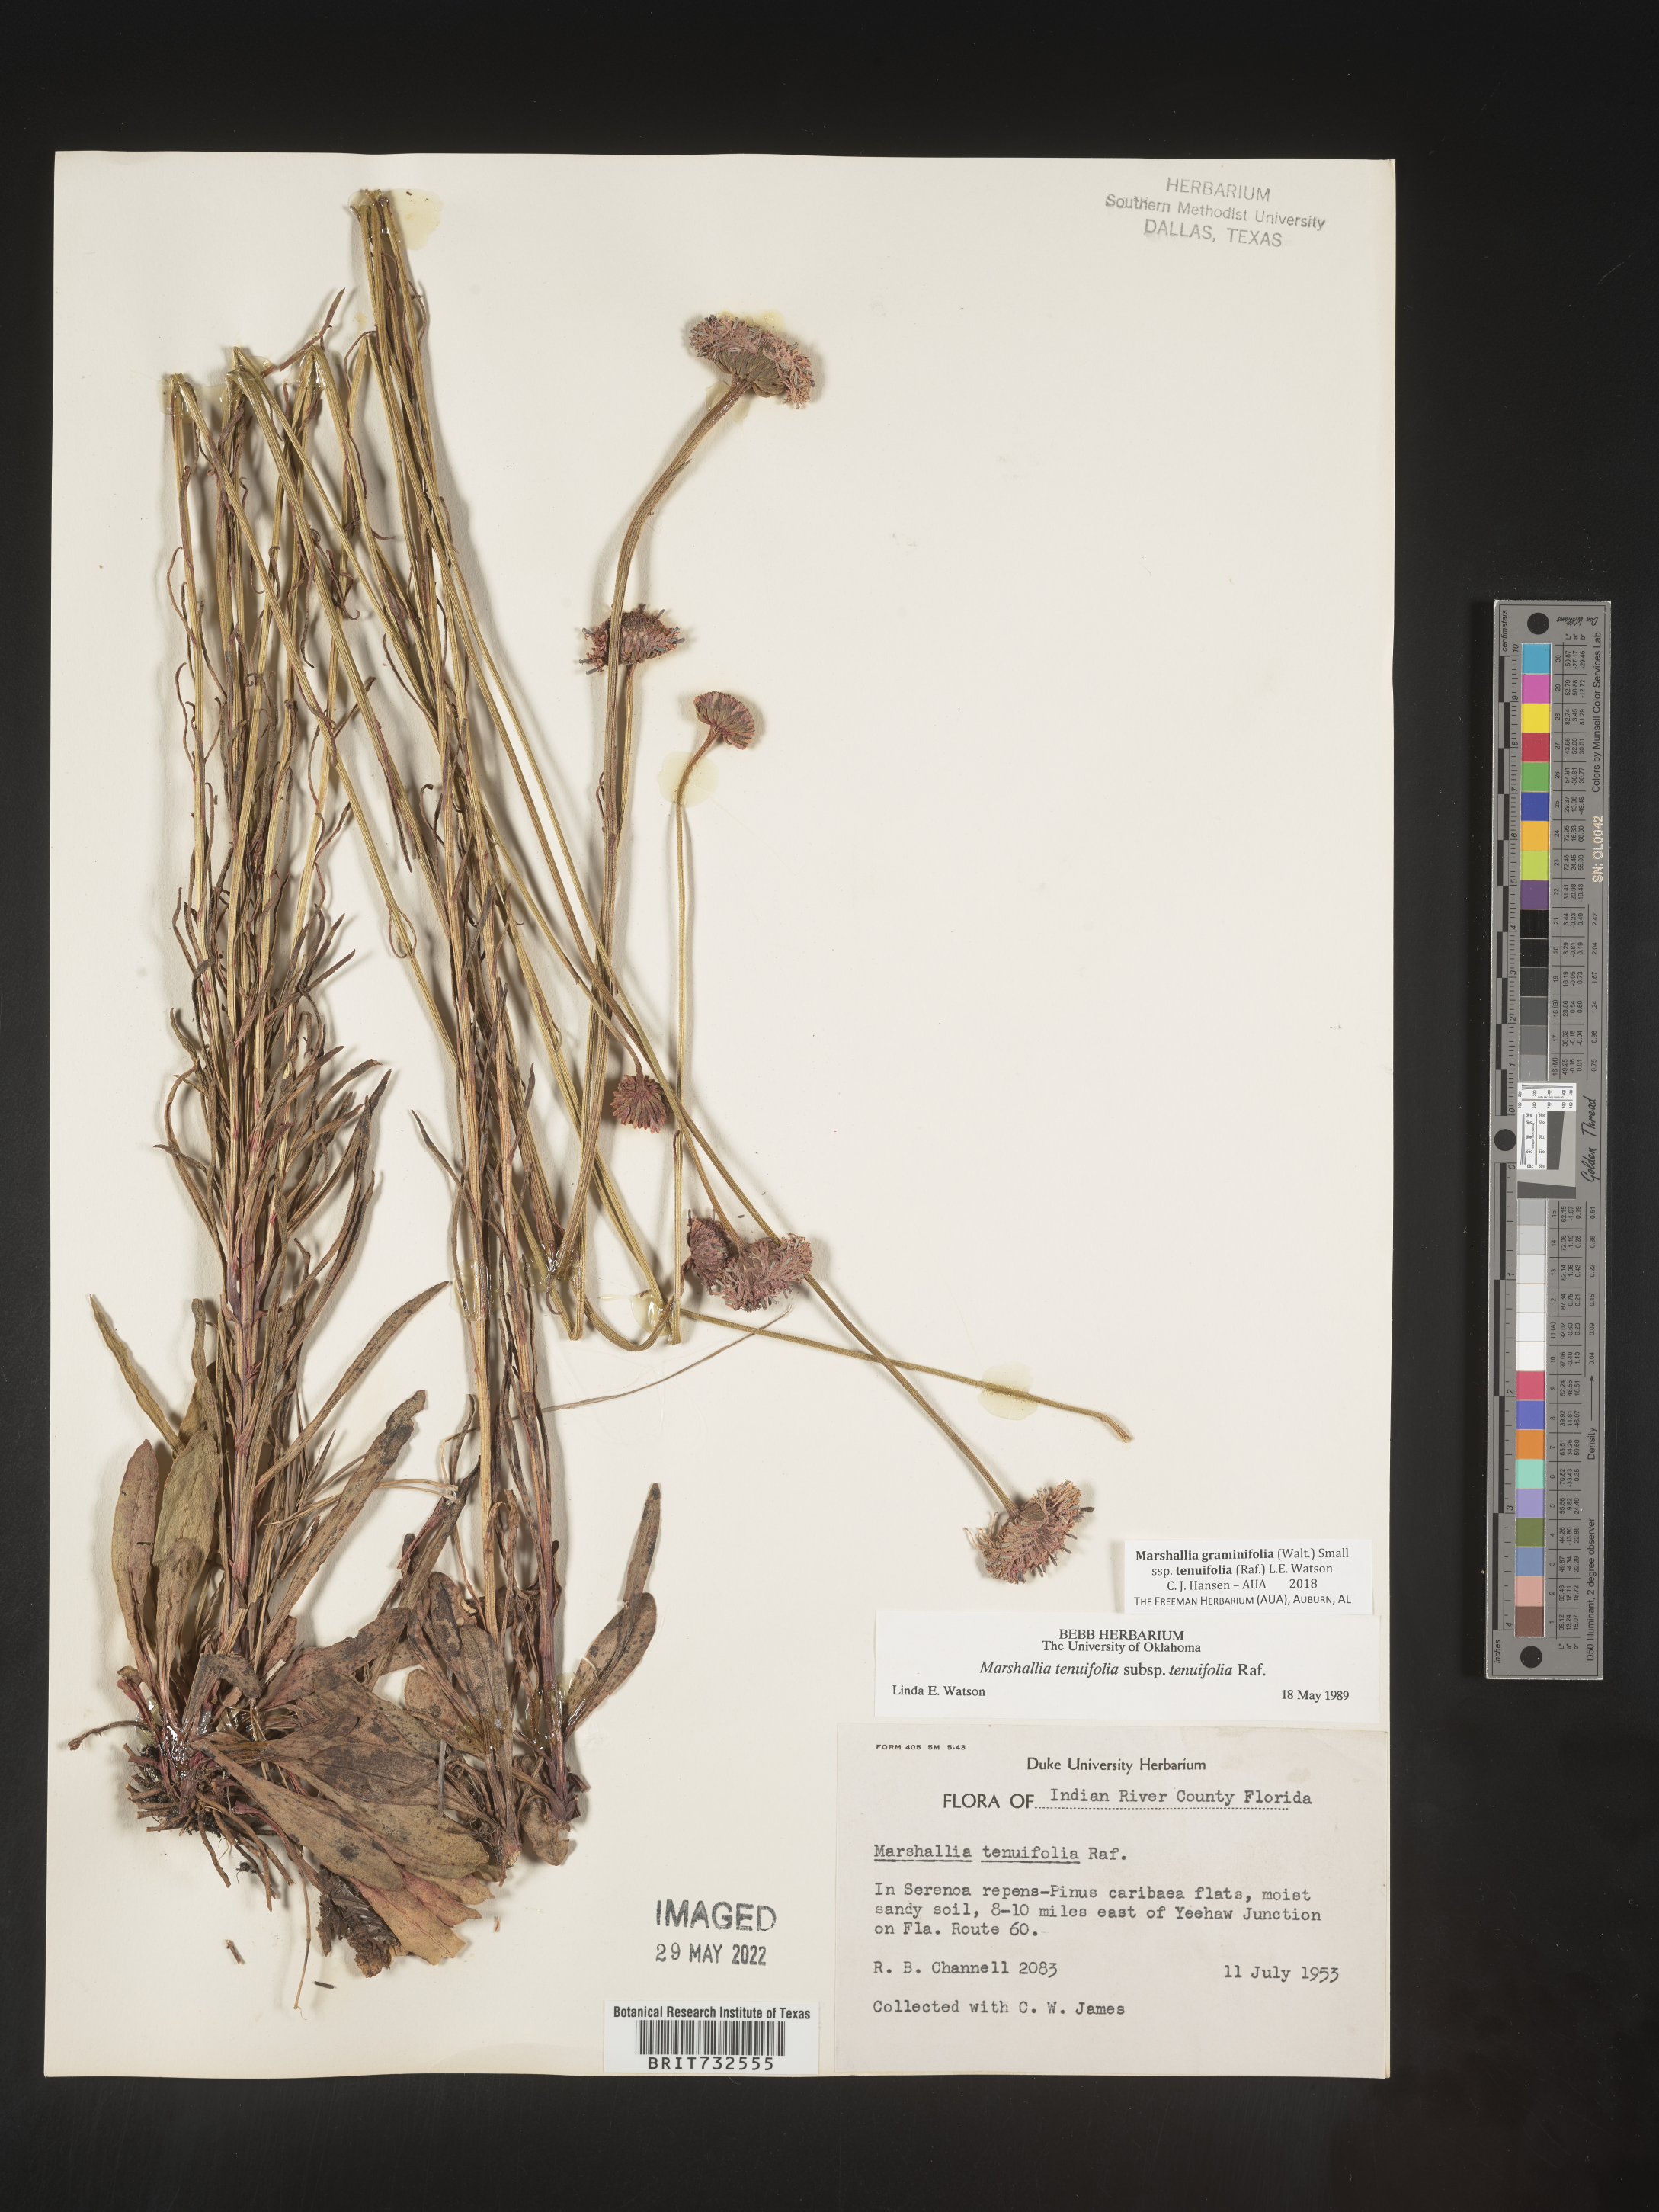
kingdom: Plantae
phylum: Tracheophyta
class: Magnoliopsida
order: Asterales
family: Asteraceae
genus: Marshallia
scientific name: Marshallia graminifolia
